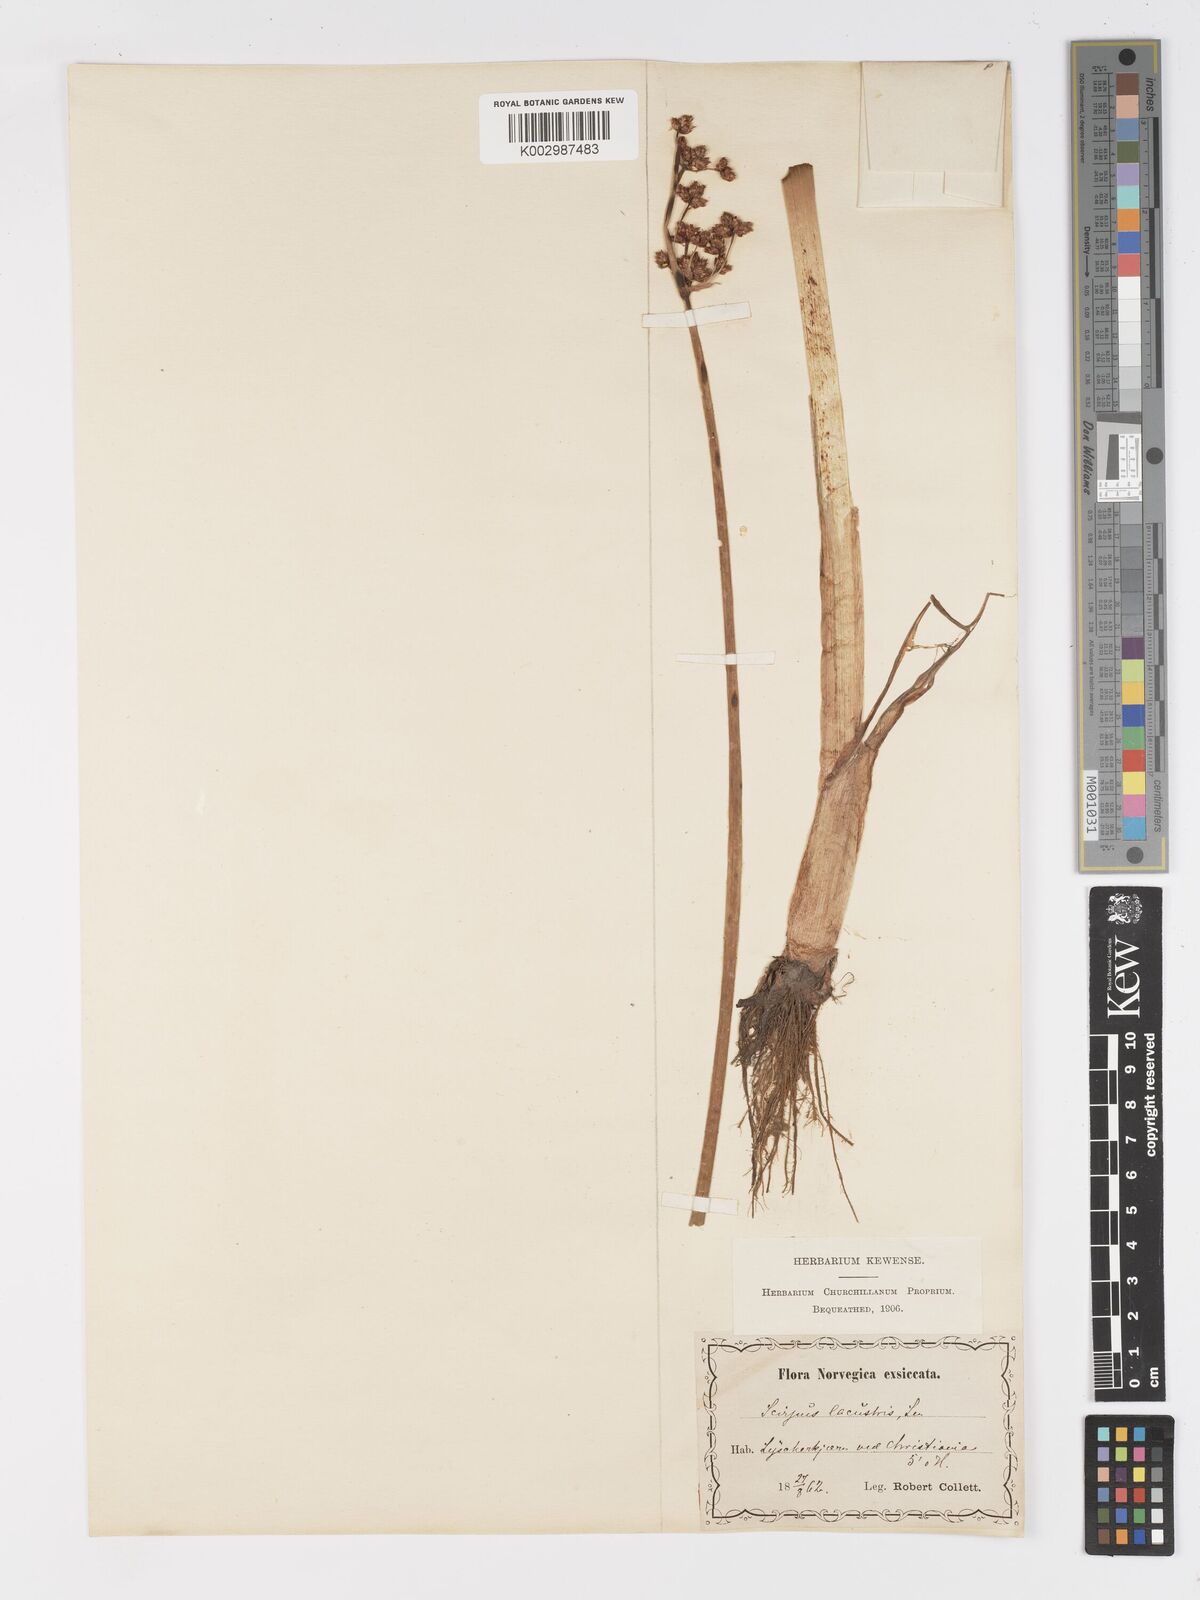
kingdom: Plantae
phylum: Tracheophyta
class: Liliopsida
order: Poales
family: Cyperaceae
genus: Schoenoplectus
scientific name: Schoenoplectus lacustris
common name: Common club-rush
